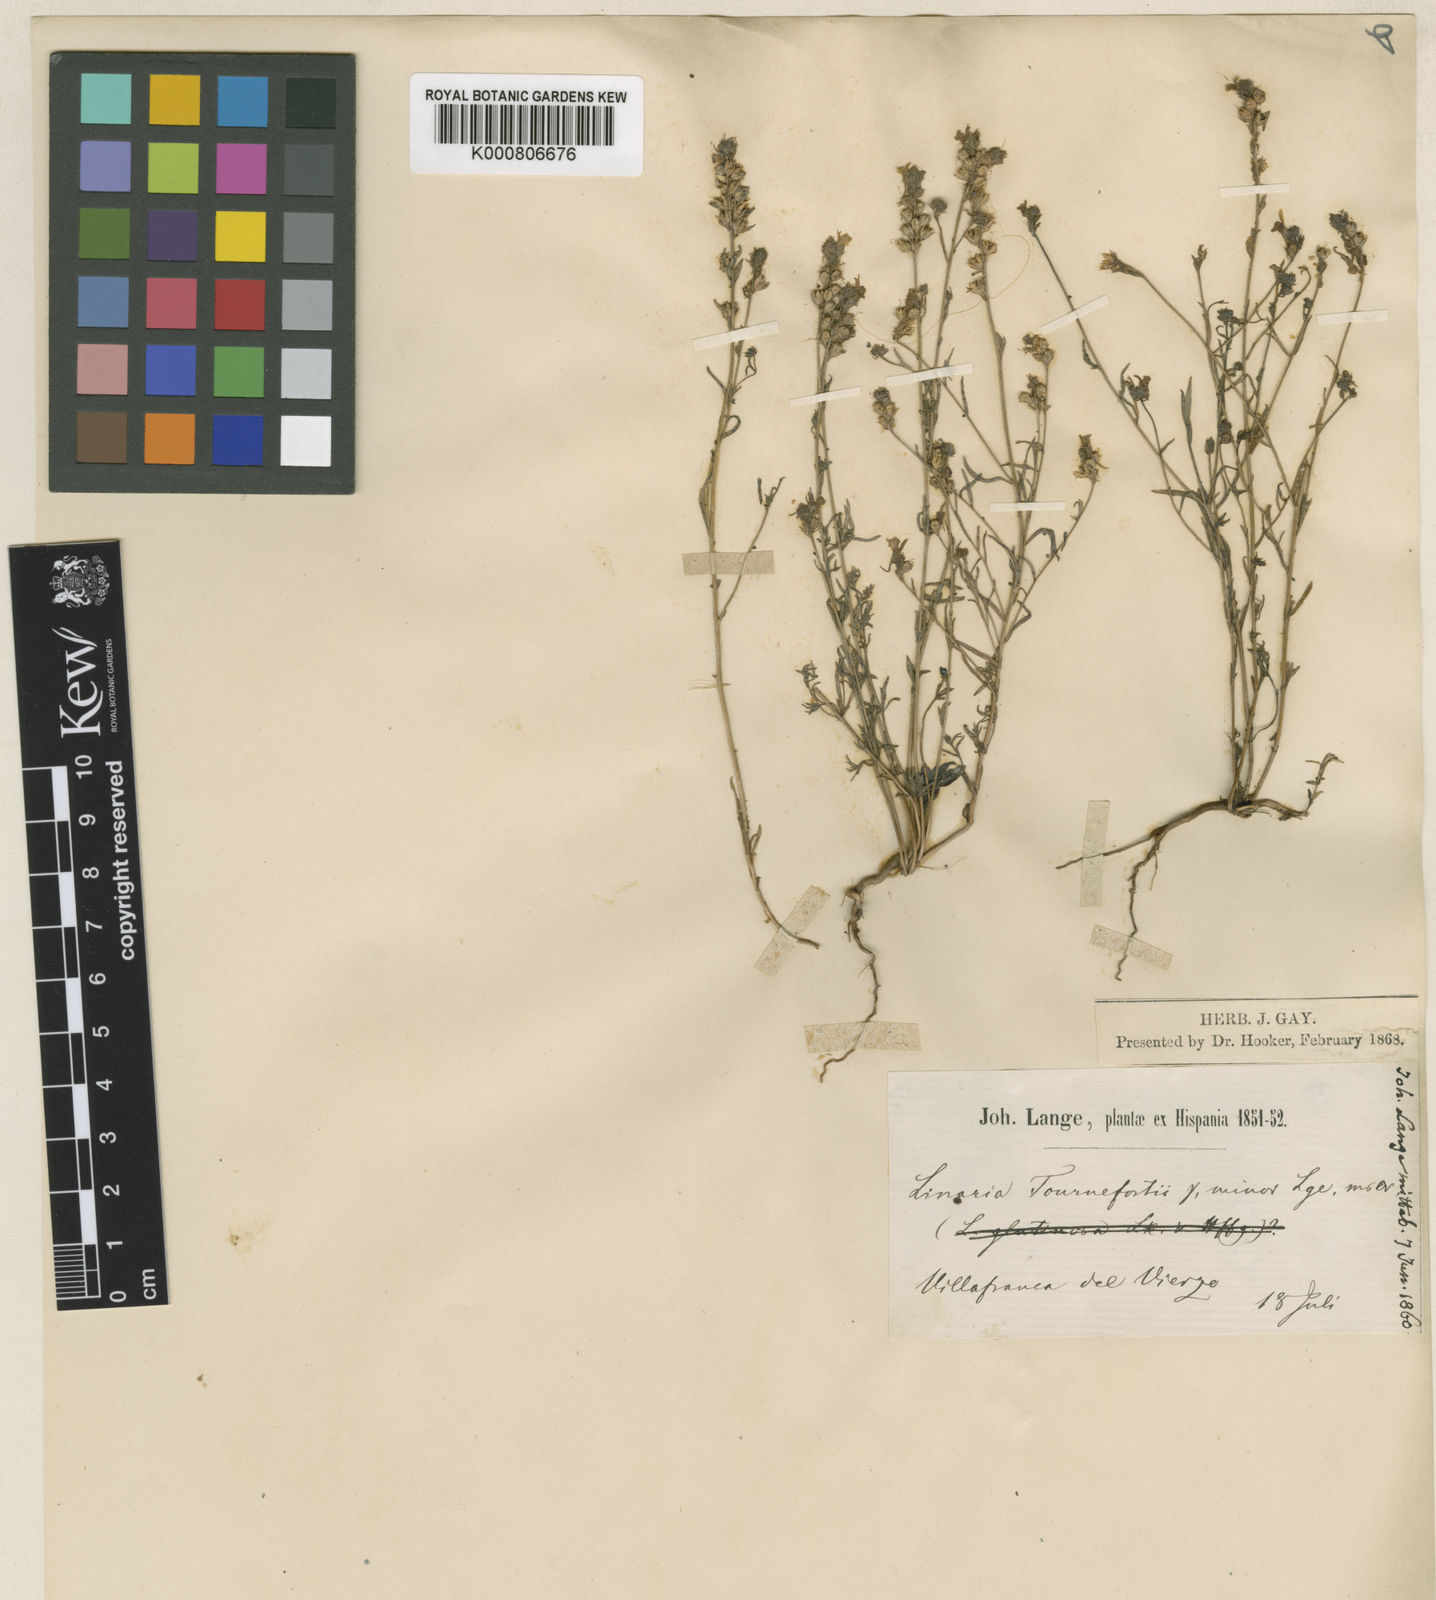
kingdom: Plantae
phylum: Tracheophyta
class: Magnoliopsida
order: Lamiales
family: Plantaginaceae
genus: Linaria
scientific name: Linaria saxatilis
